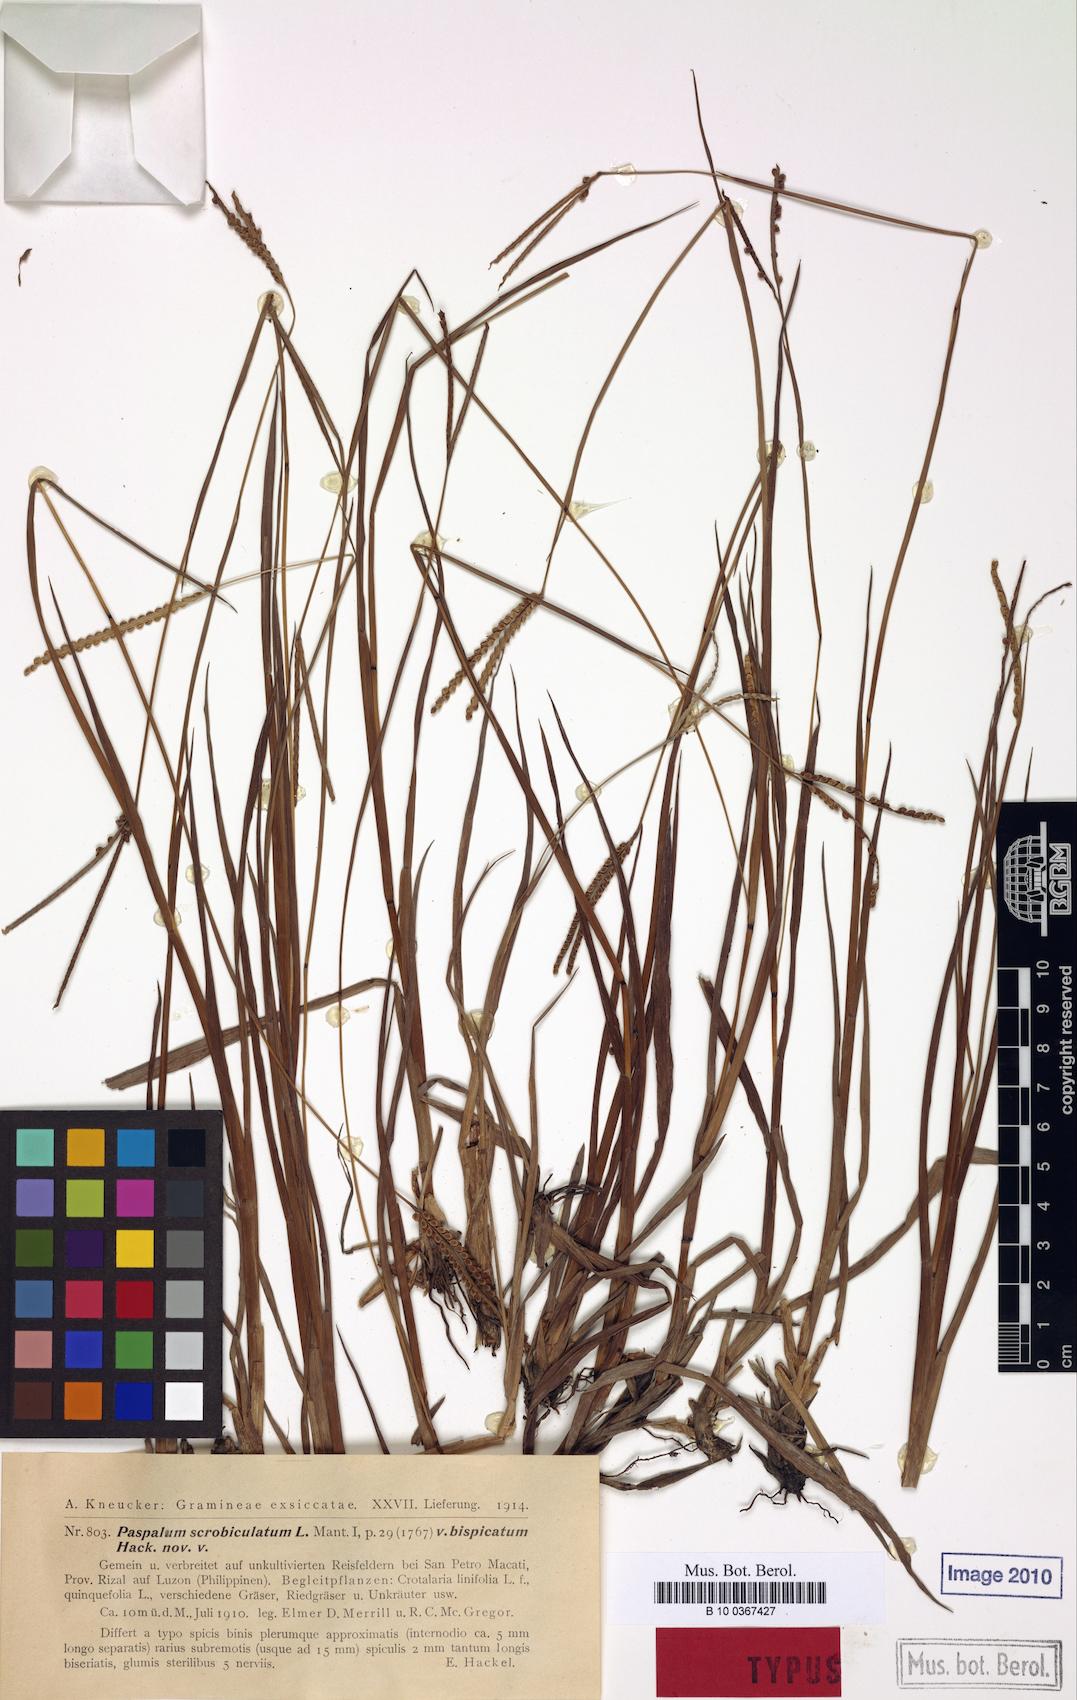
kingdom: Plantae
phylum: Tracheophyta
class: Liliopsida
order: Poales
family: Poaceae
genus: Paspalum
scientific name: Paspalum scrobiculatum
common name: Kodo millet
